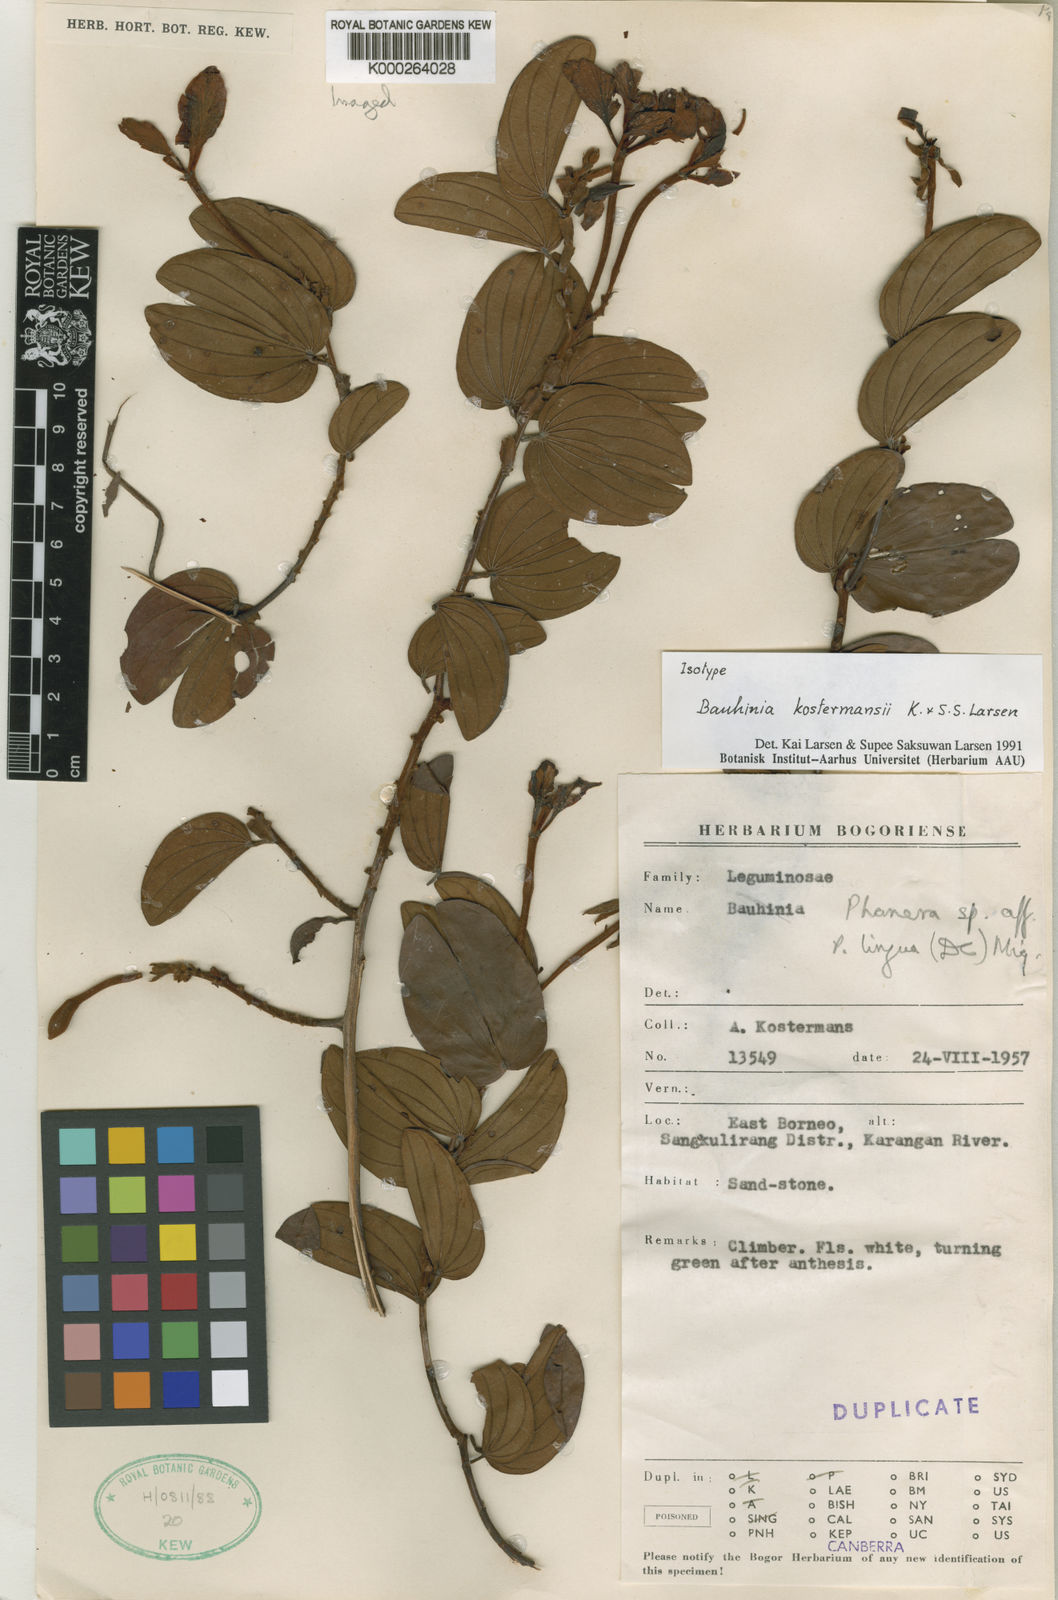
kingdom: Plantae
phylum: Tracheophyta
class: Magnoliopsida
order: Fabales
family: Fabaceae
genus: Phanera
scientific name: Phanera kostermansii
